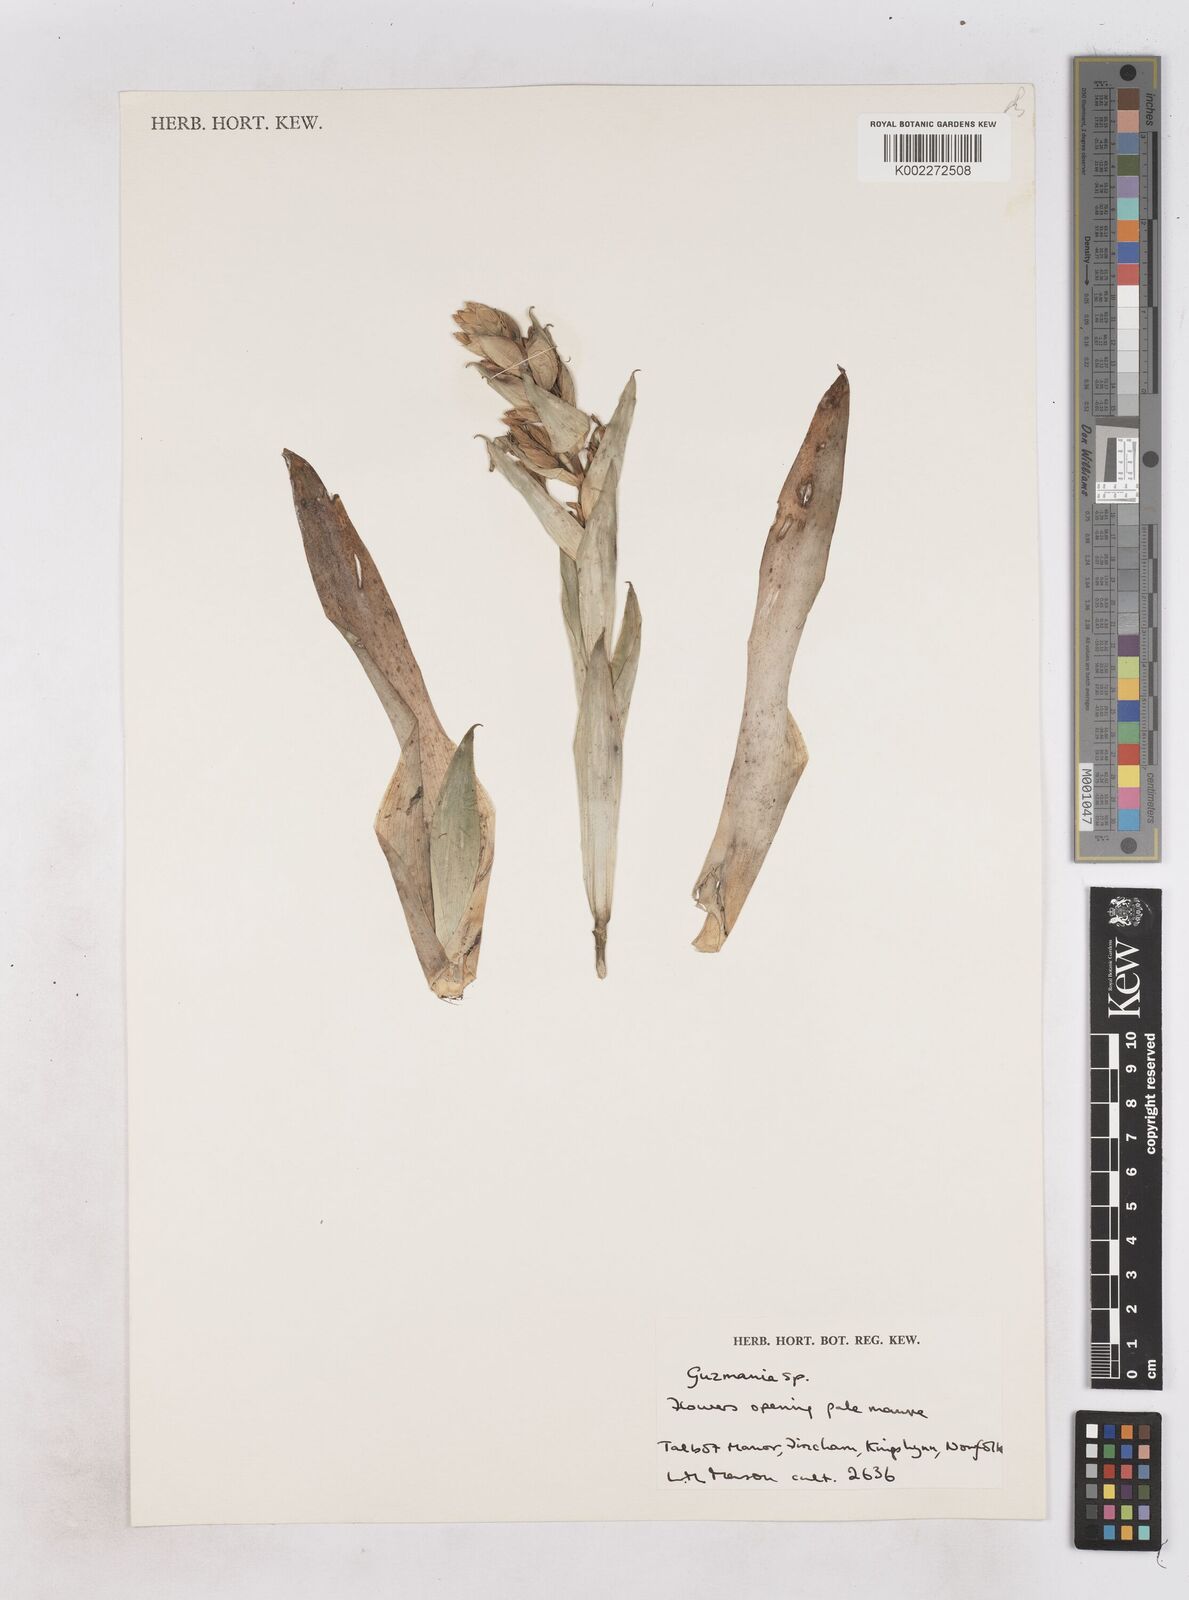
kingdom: Plantae
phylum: Tracheophyta
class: Liliopsida
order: Poales
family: Bromeliaceae
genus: Guzmania
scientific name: Guzmania
